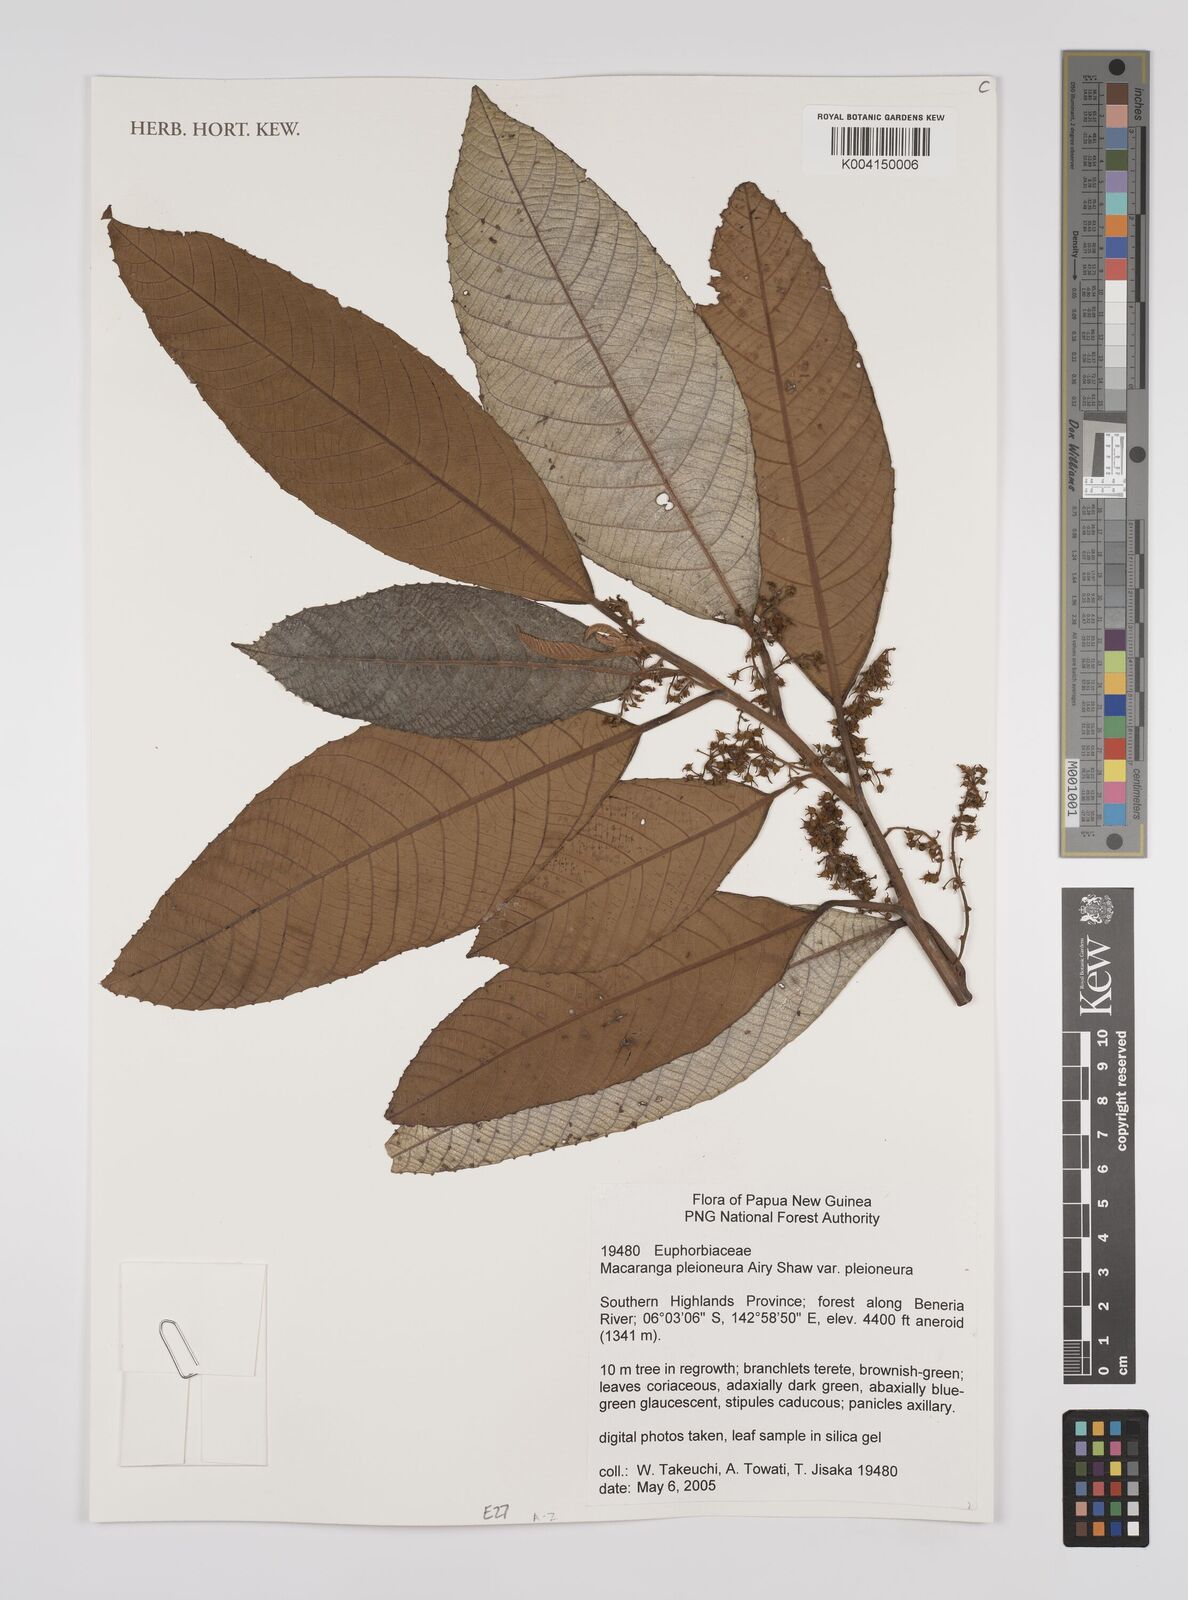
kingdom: Plantae
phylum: Tracheophyta
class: Magnoliopsida
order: Malpighiales
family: Euphorbiaceae
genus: Macaranga
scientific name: Macaranga pleioneura
